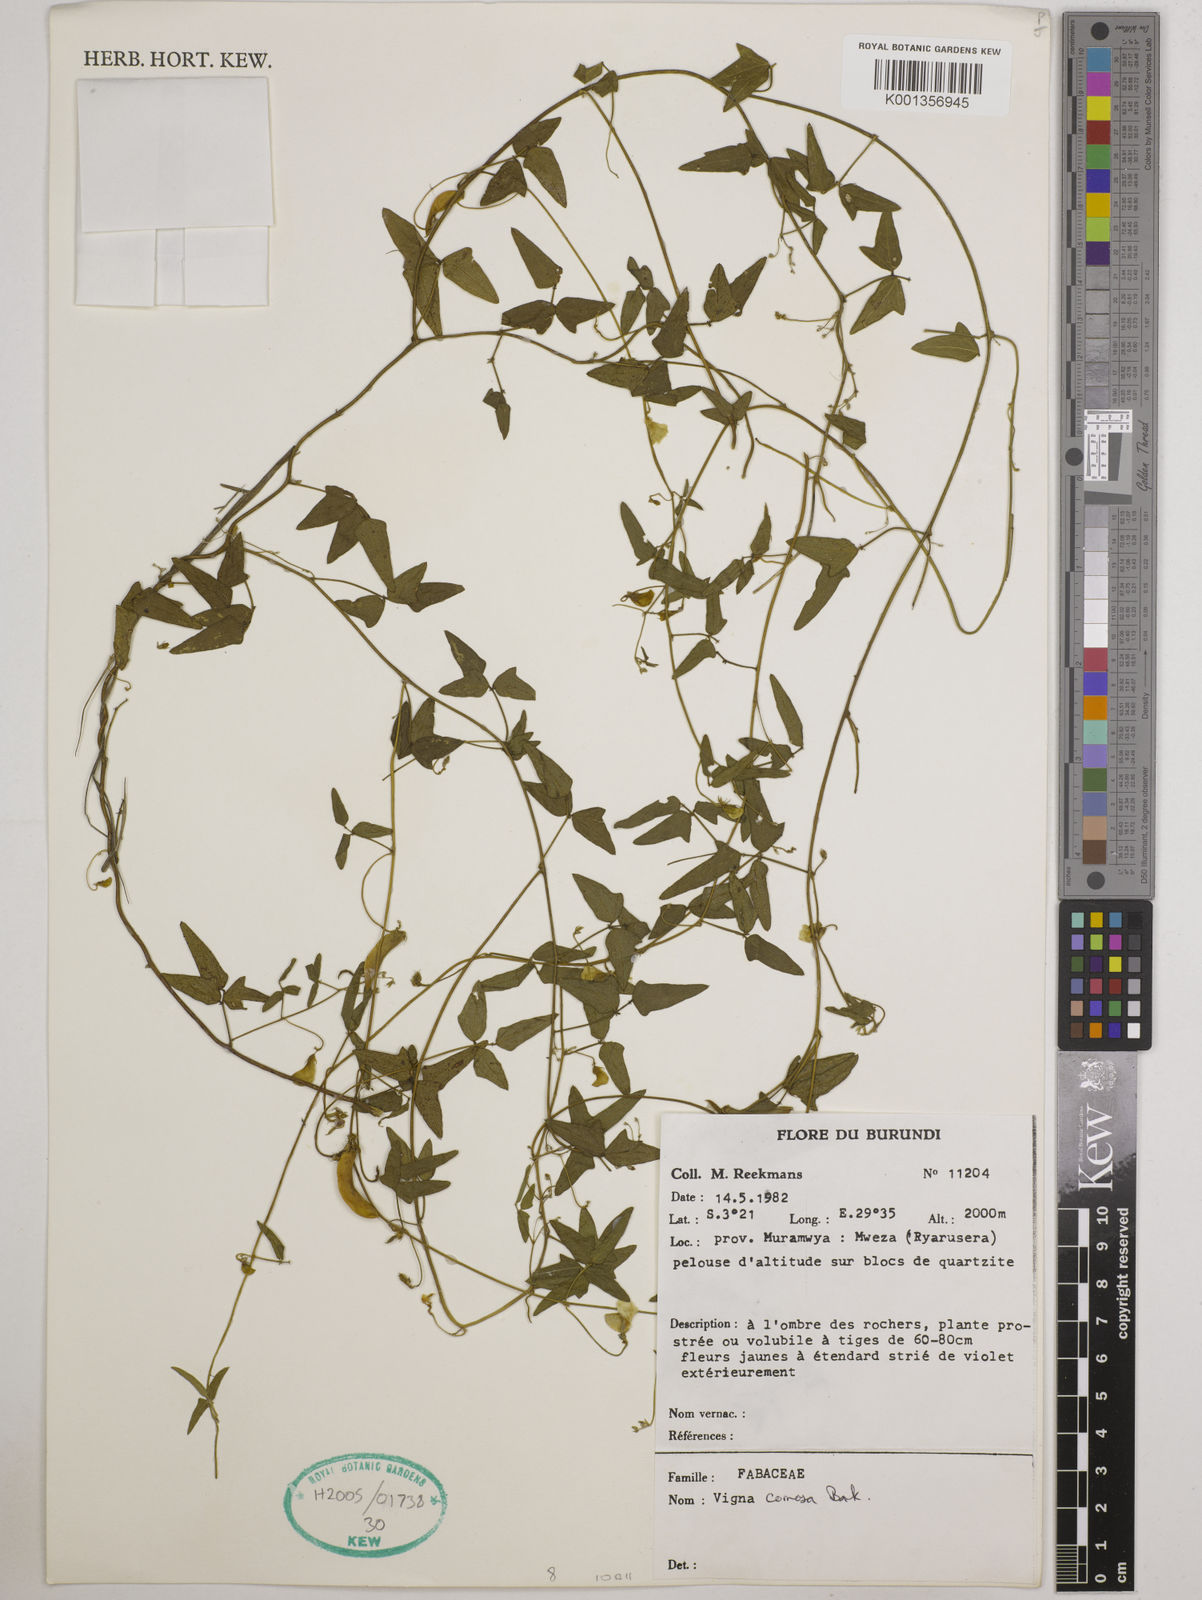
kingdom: Plantae
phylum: Tracheophyta
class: Magnoliopsida
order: Fabales
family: Fabaceae
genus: Vigna
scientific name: Vigna comosa
